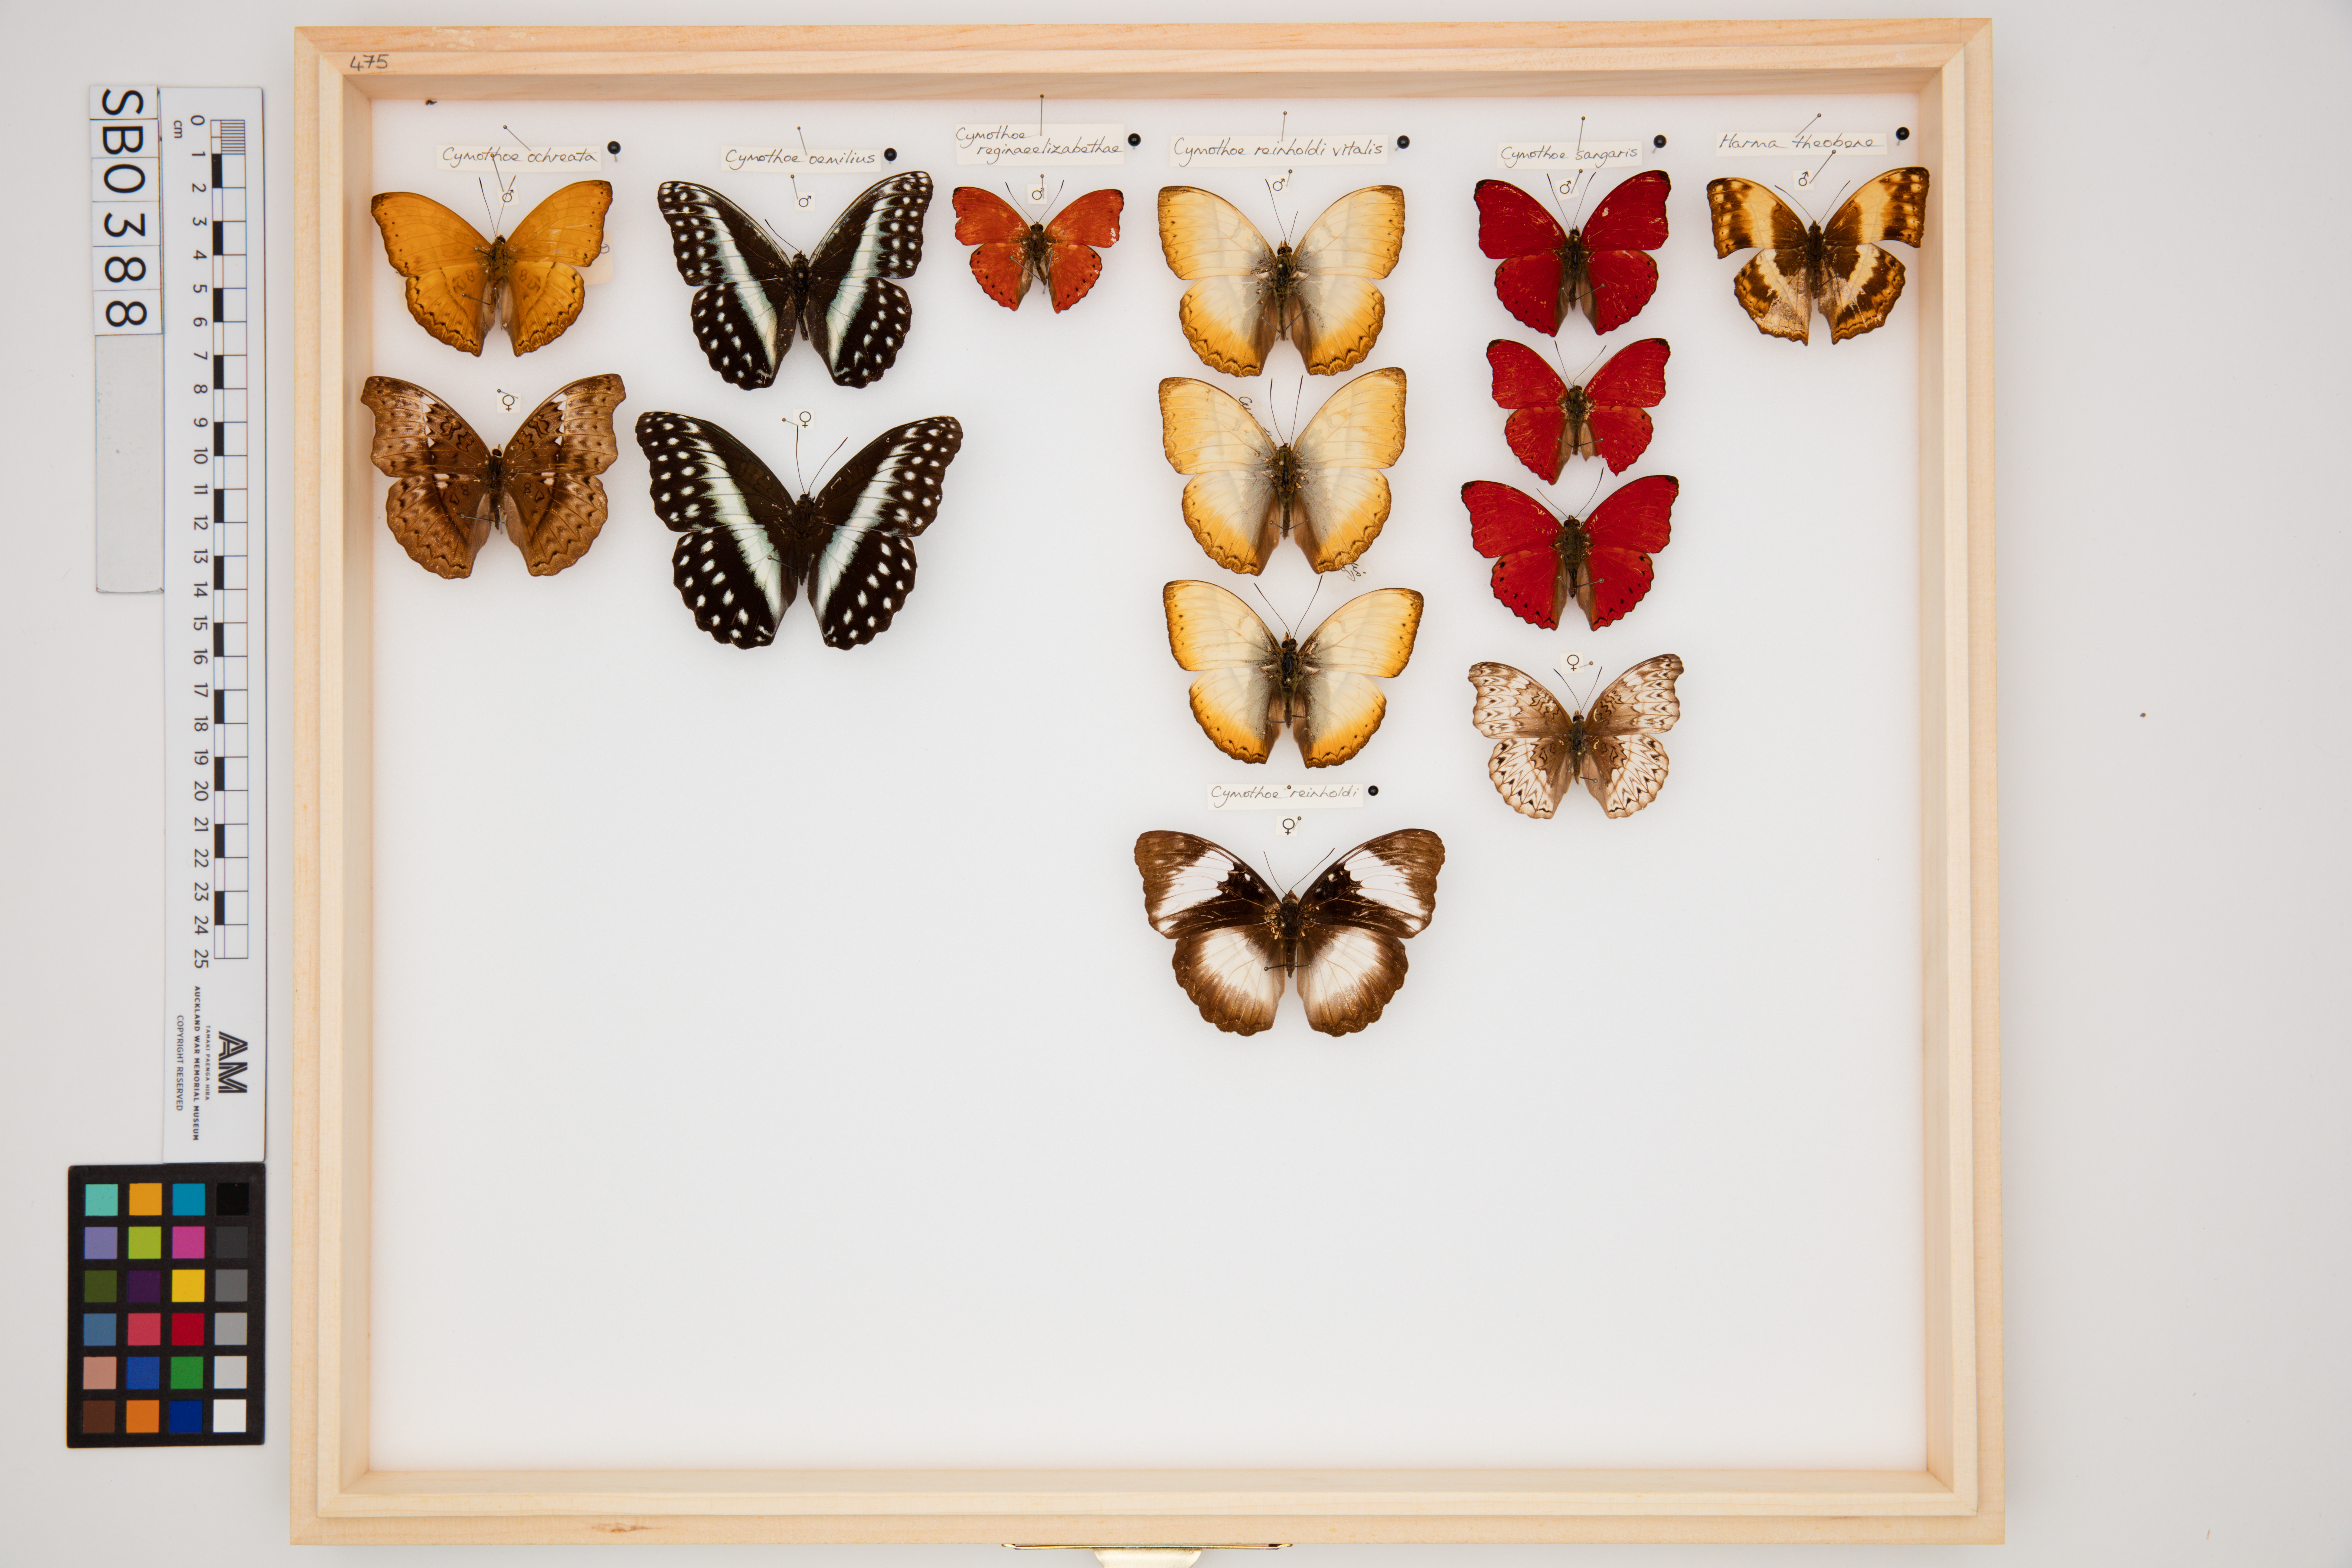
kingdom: Animalia
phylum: Arthropoda
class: Insecta
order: Lepidoptera
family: Nymphalidae
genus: Cymothoe
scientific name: Cymothoe reinholdi
